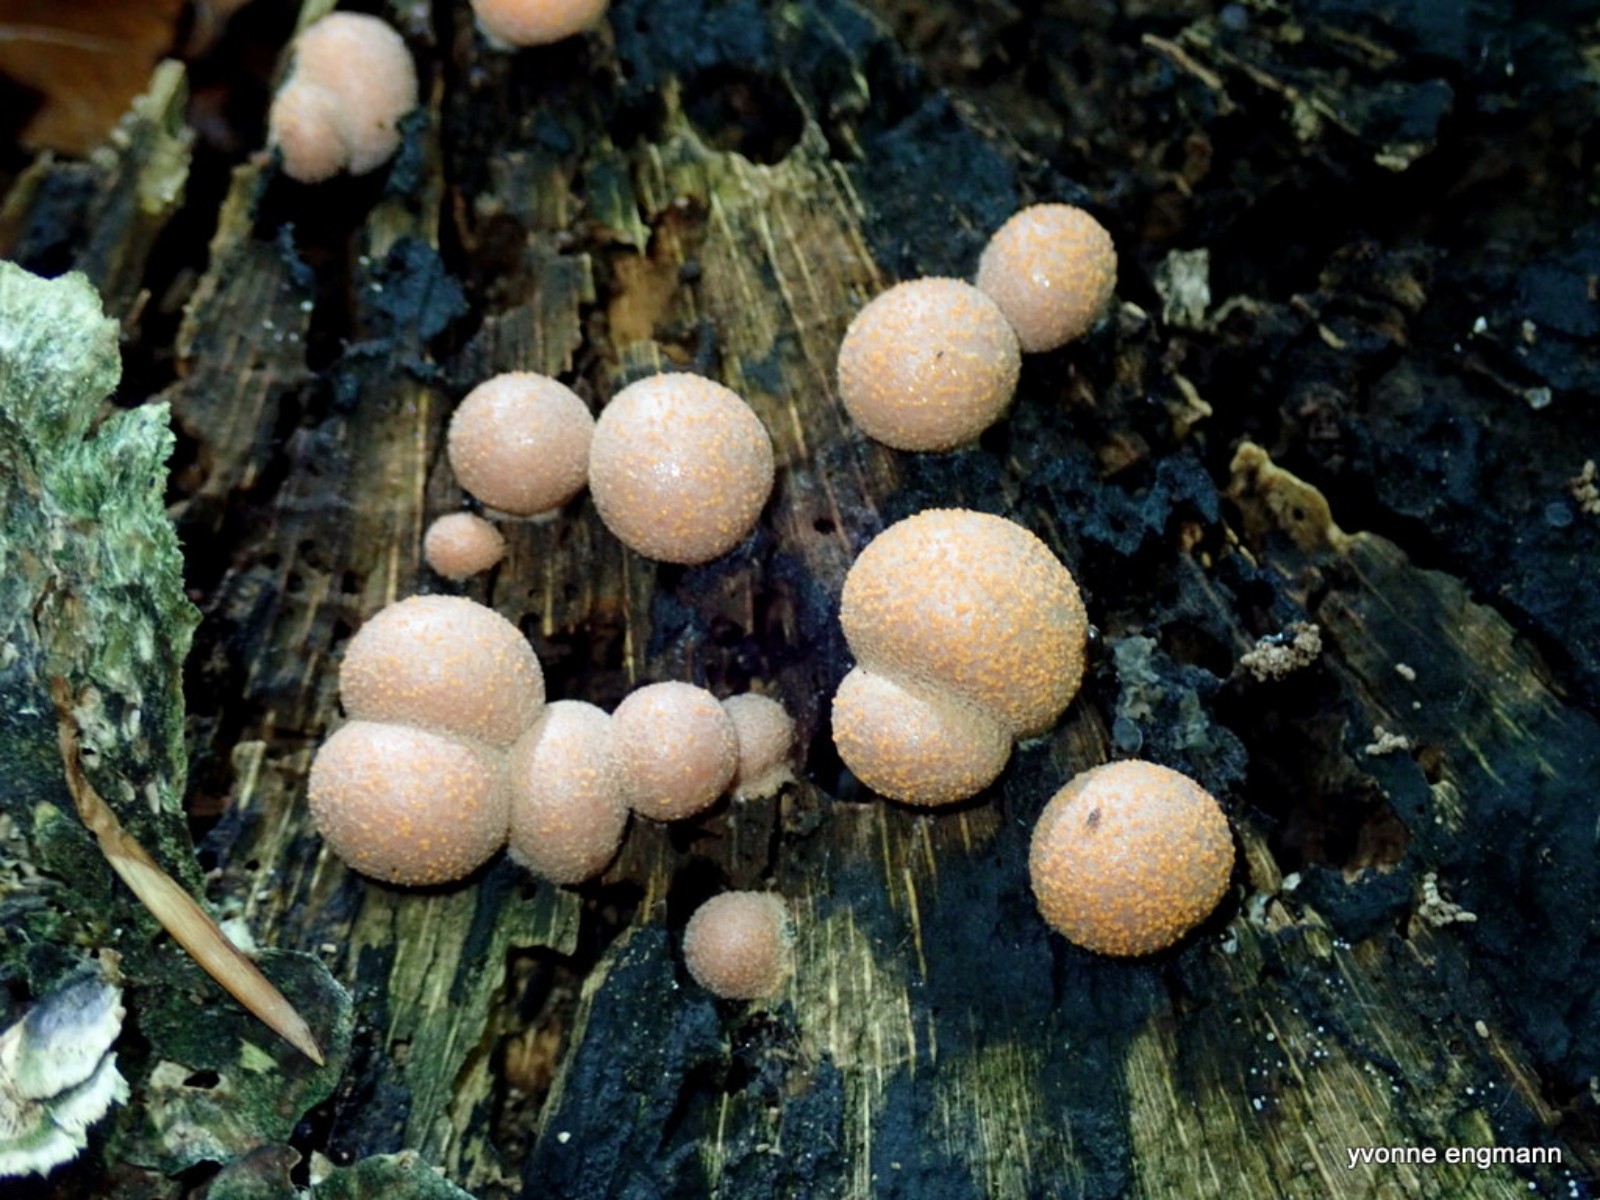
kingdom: Protozoa
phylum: Mycetozoa
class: Myxomycetes
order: Cribrariales
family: Tubiferaceae
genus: Lycogala
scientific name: Lycogala epidendrum
